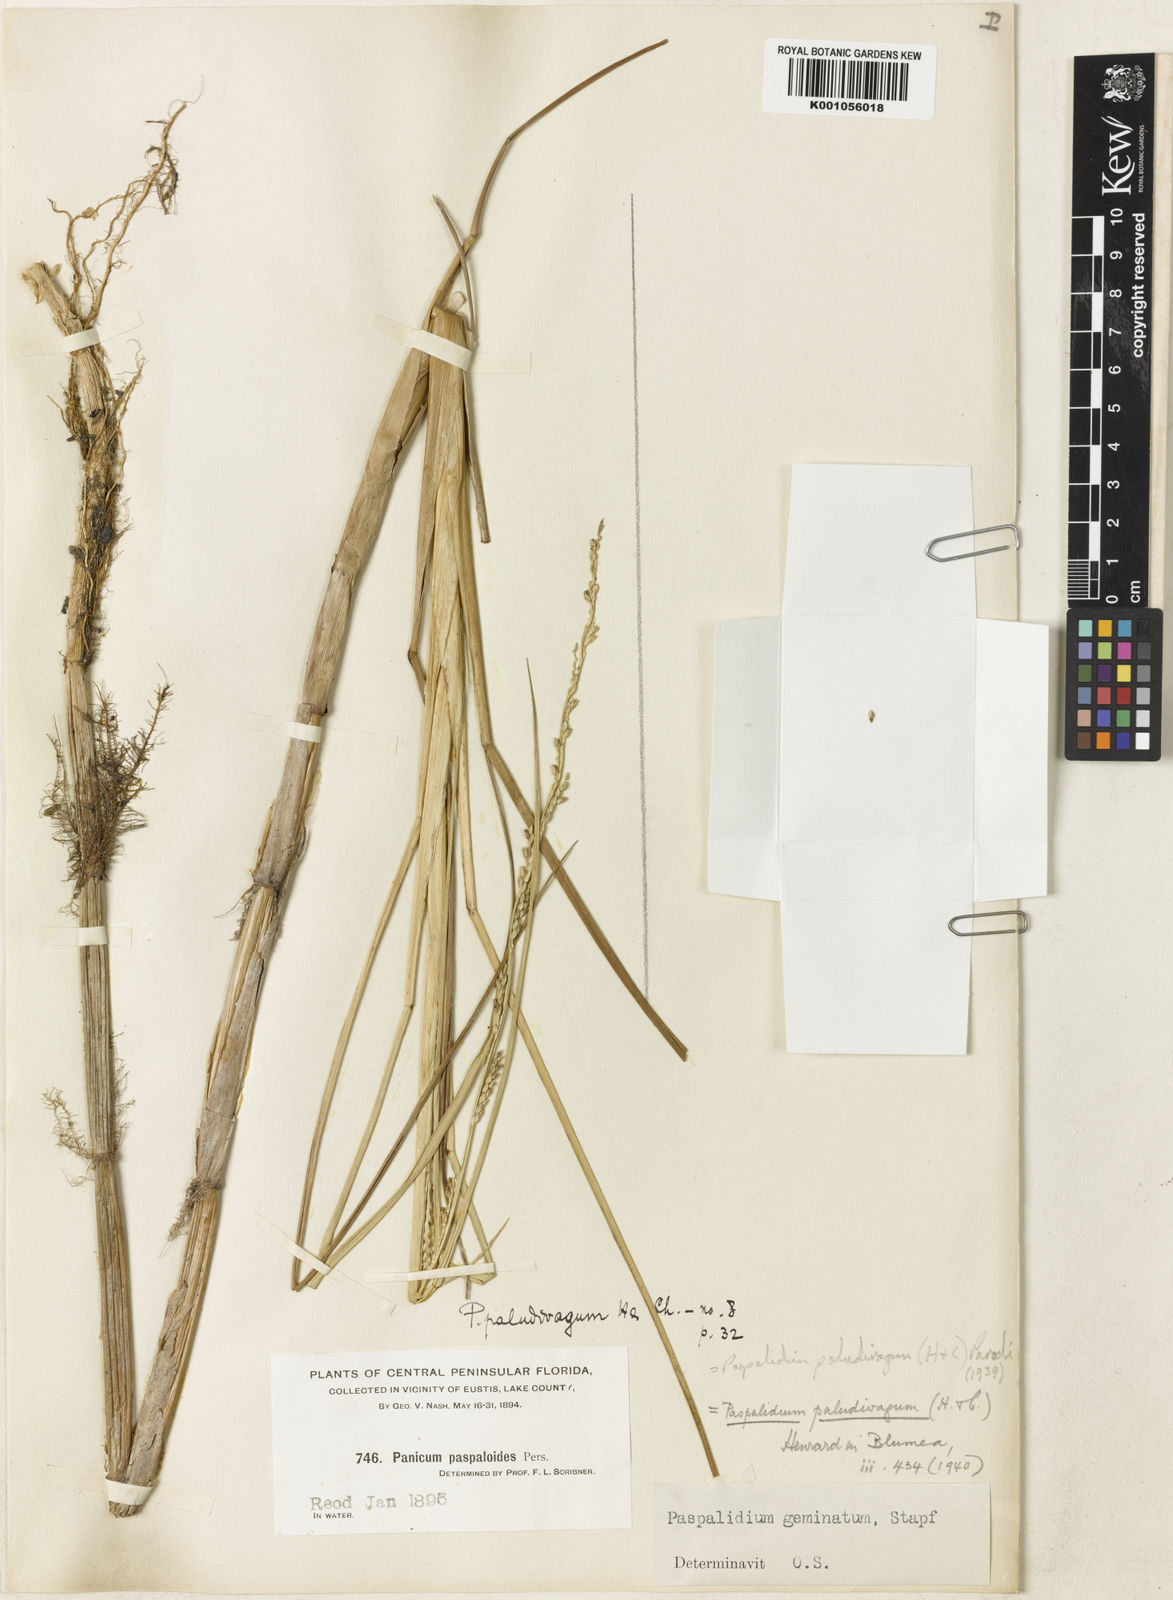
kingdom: Plantae
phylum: Tracheophyta
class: Liliopsida
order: Poales
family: Poaceae
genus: Setaria
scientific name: Setaria geminata
